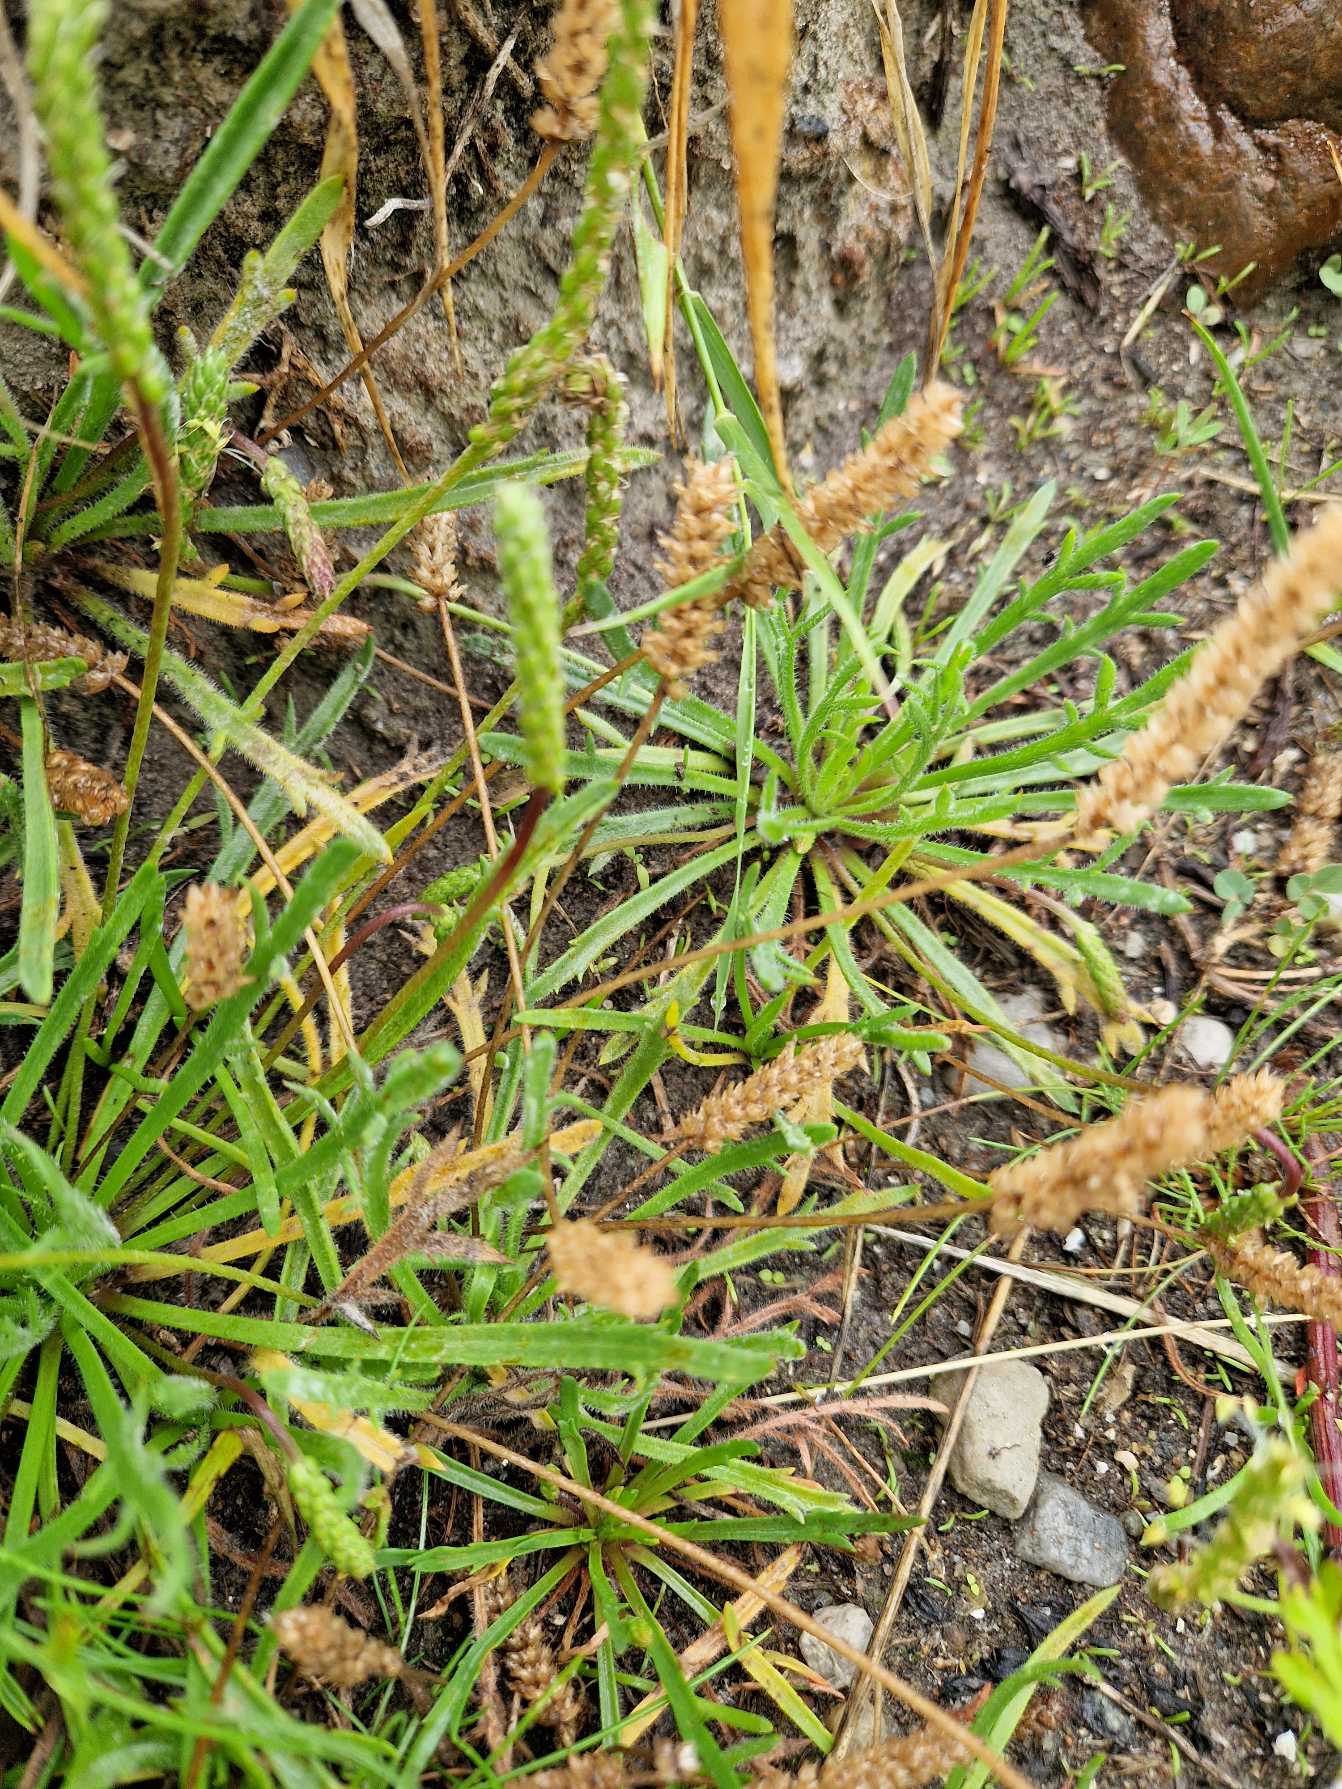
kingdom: Plantae
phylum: Tracheophyta
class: Magnoliopsida
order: Lamiales
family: Plantaginaceae
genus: Plantago
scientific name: Plantago coronopus
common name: Fliget vejbred
